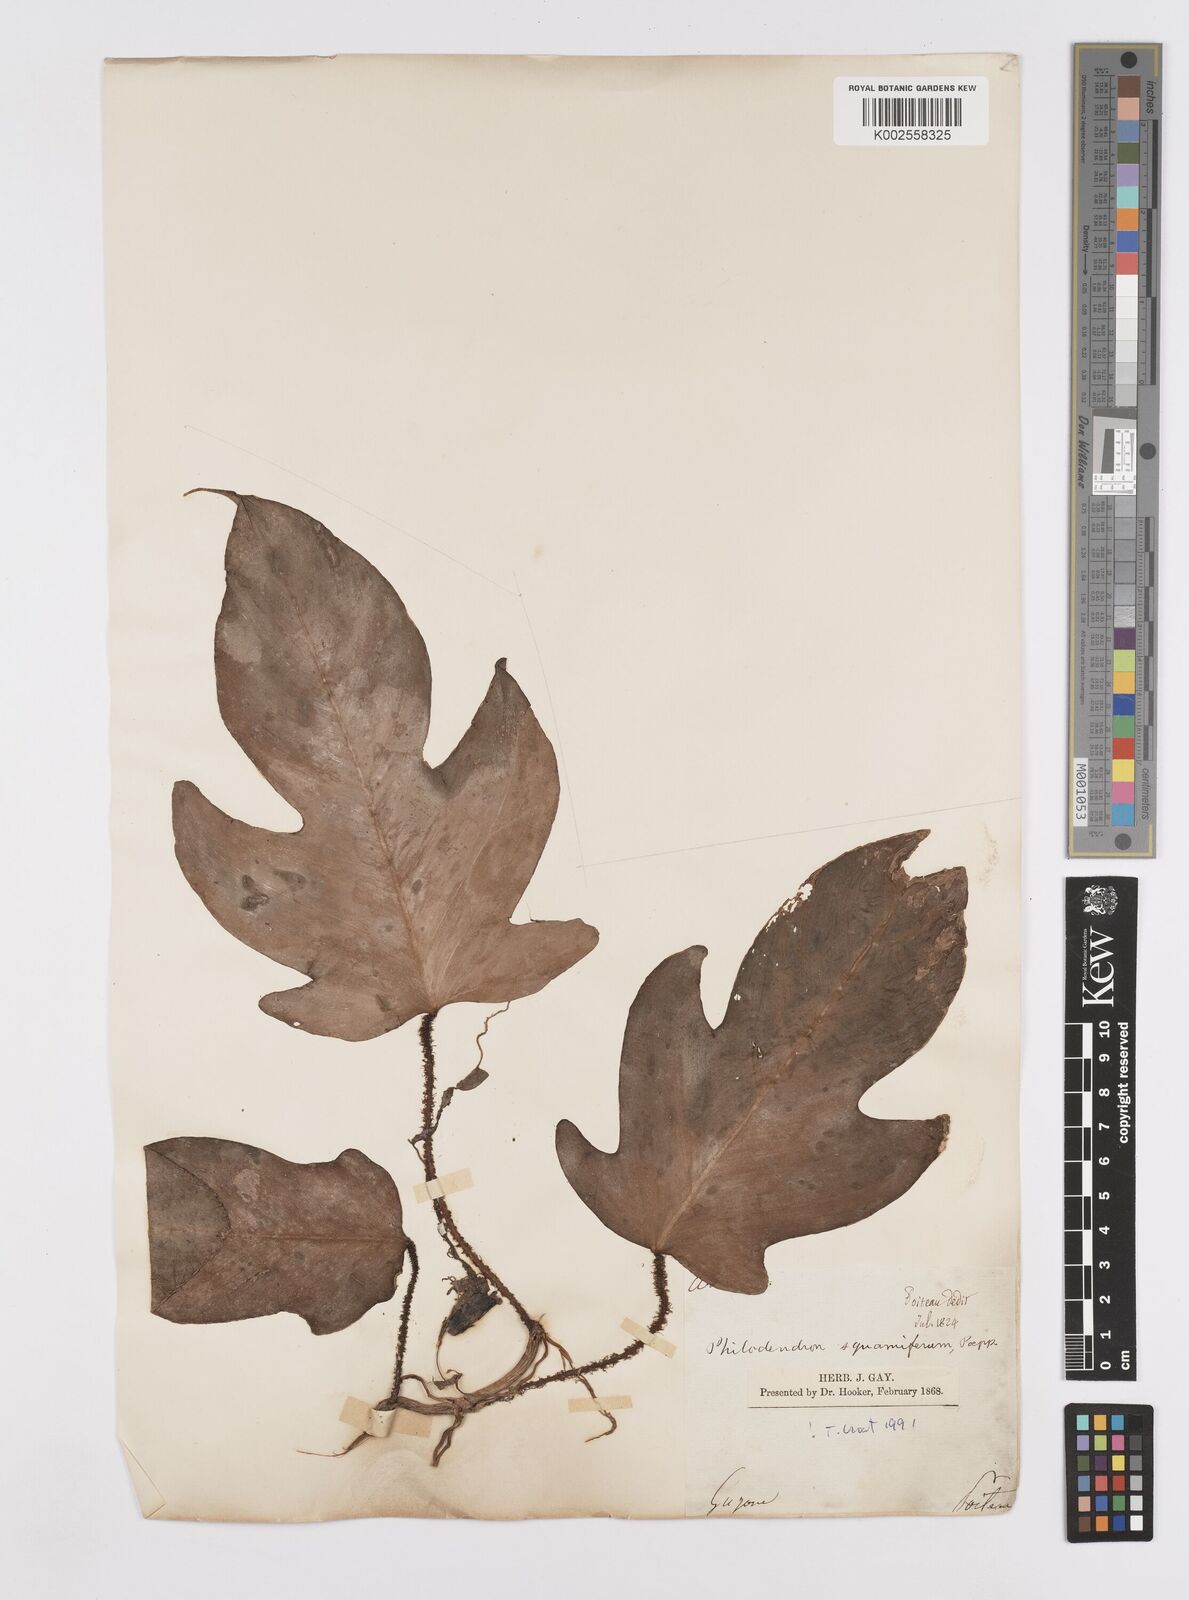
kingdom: Plantae
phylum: Tracheophyta
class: Liliopsida
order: Alismatales
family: Araceae
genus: Philodendron
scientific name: Philodendron squamiferum
